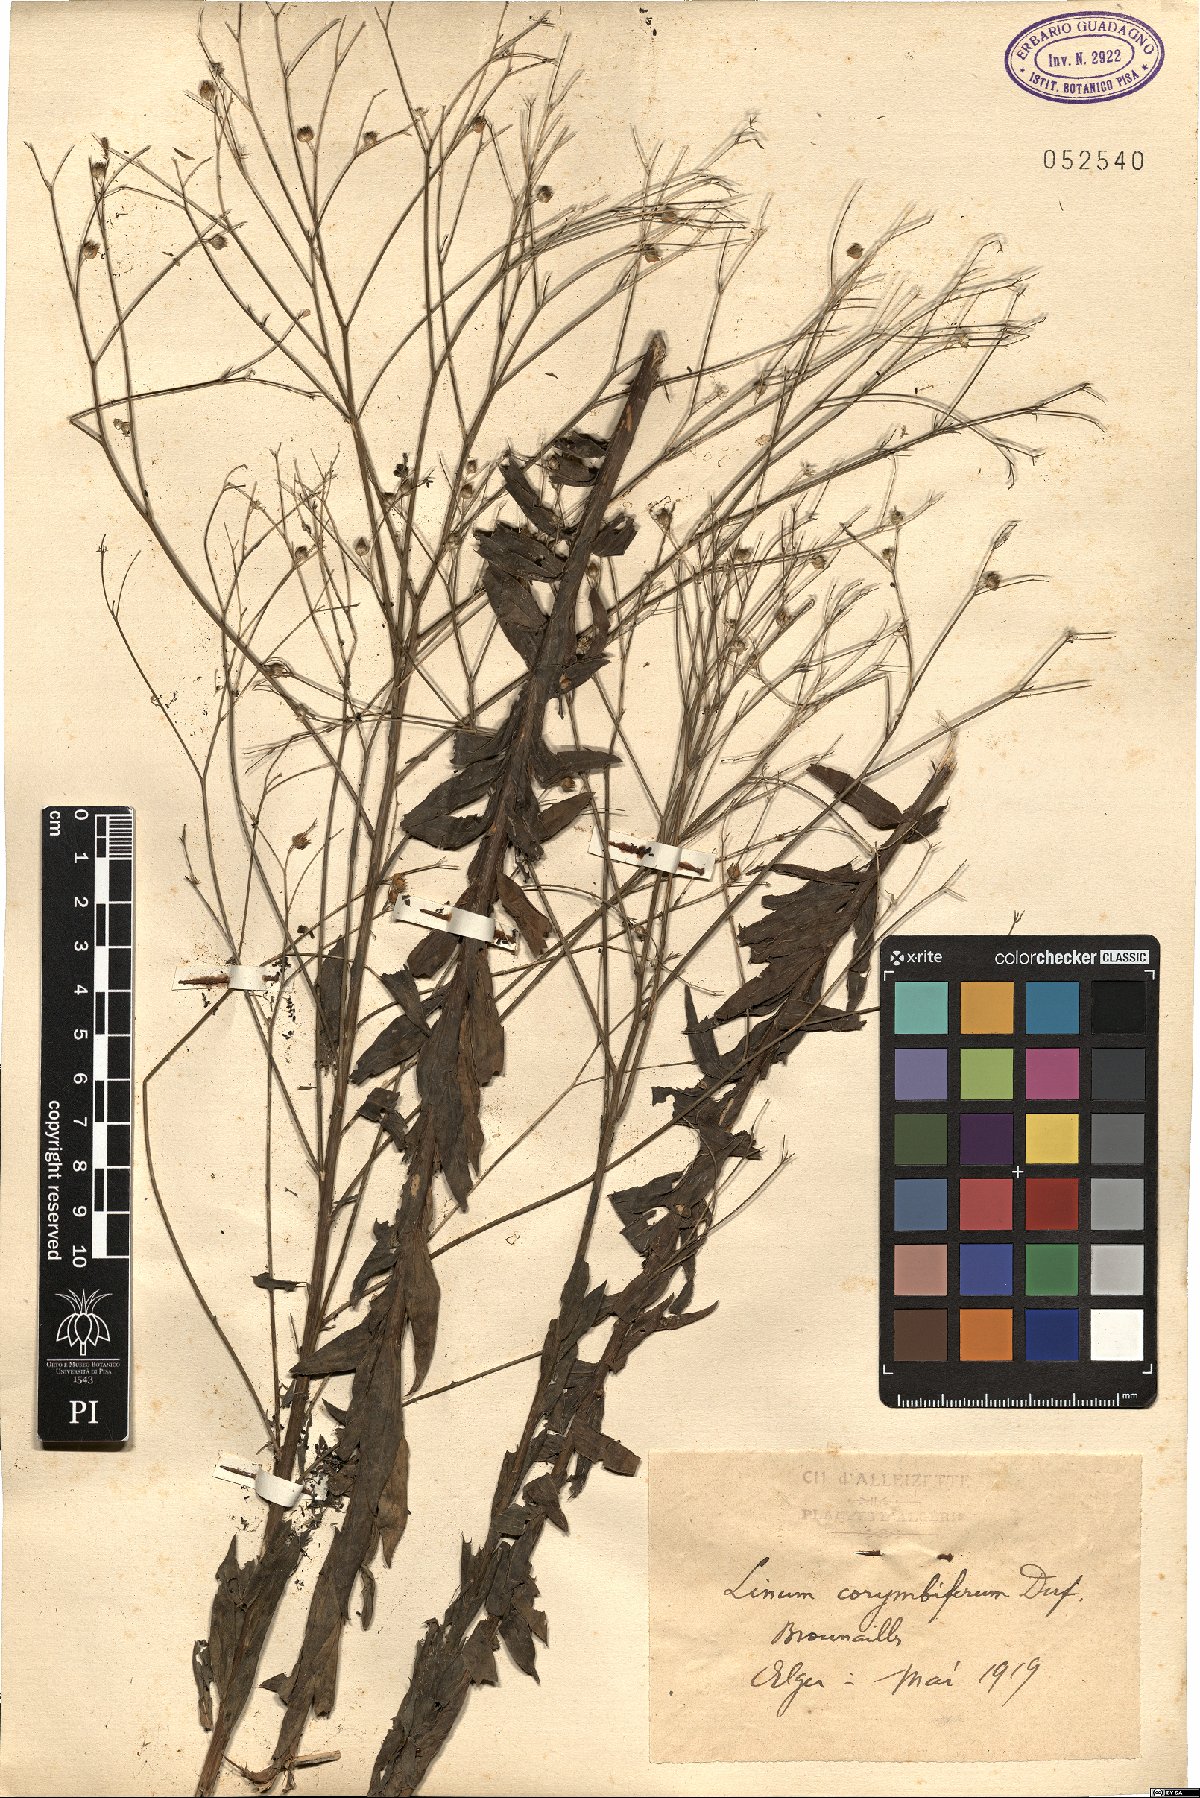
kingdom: Plantae
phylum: Tracheophyta
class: Magnoliopsida
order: Malpighiales
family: Linaceae
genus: Linum
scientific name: Linum corymbiferum
